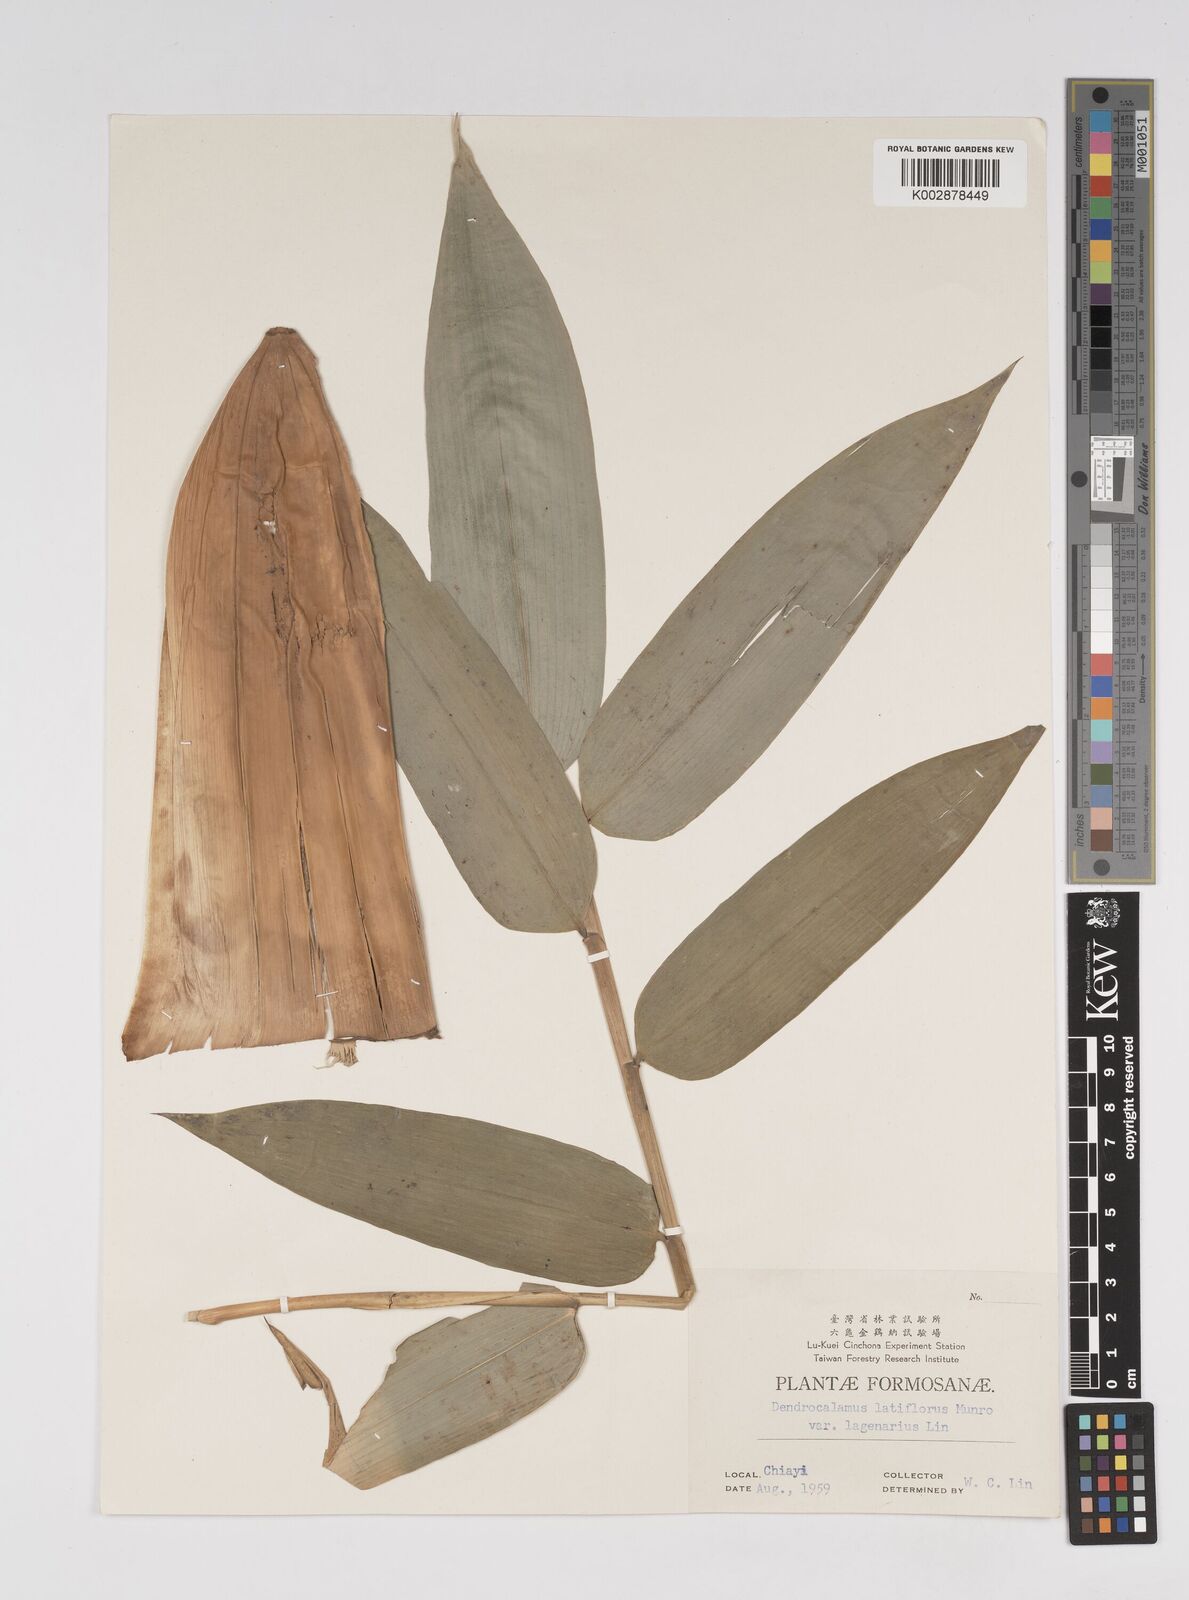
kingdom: Plantae
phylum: Tracheophyta
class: Liliopsida
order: Poales
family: Poaceae
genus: Dendrocalamus
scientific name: Dendrocalamus latiflorus
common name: Giant bamboo
